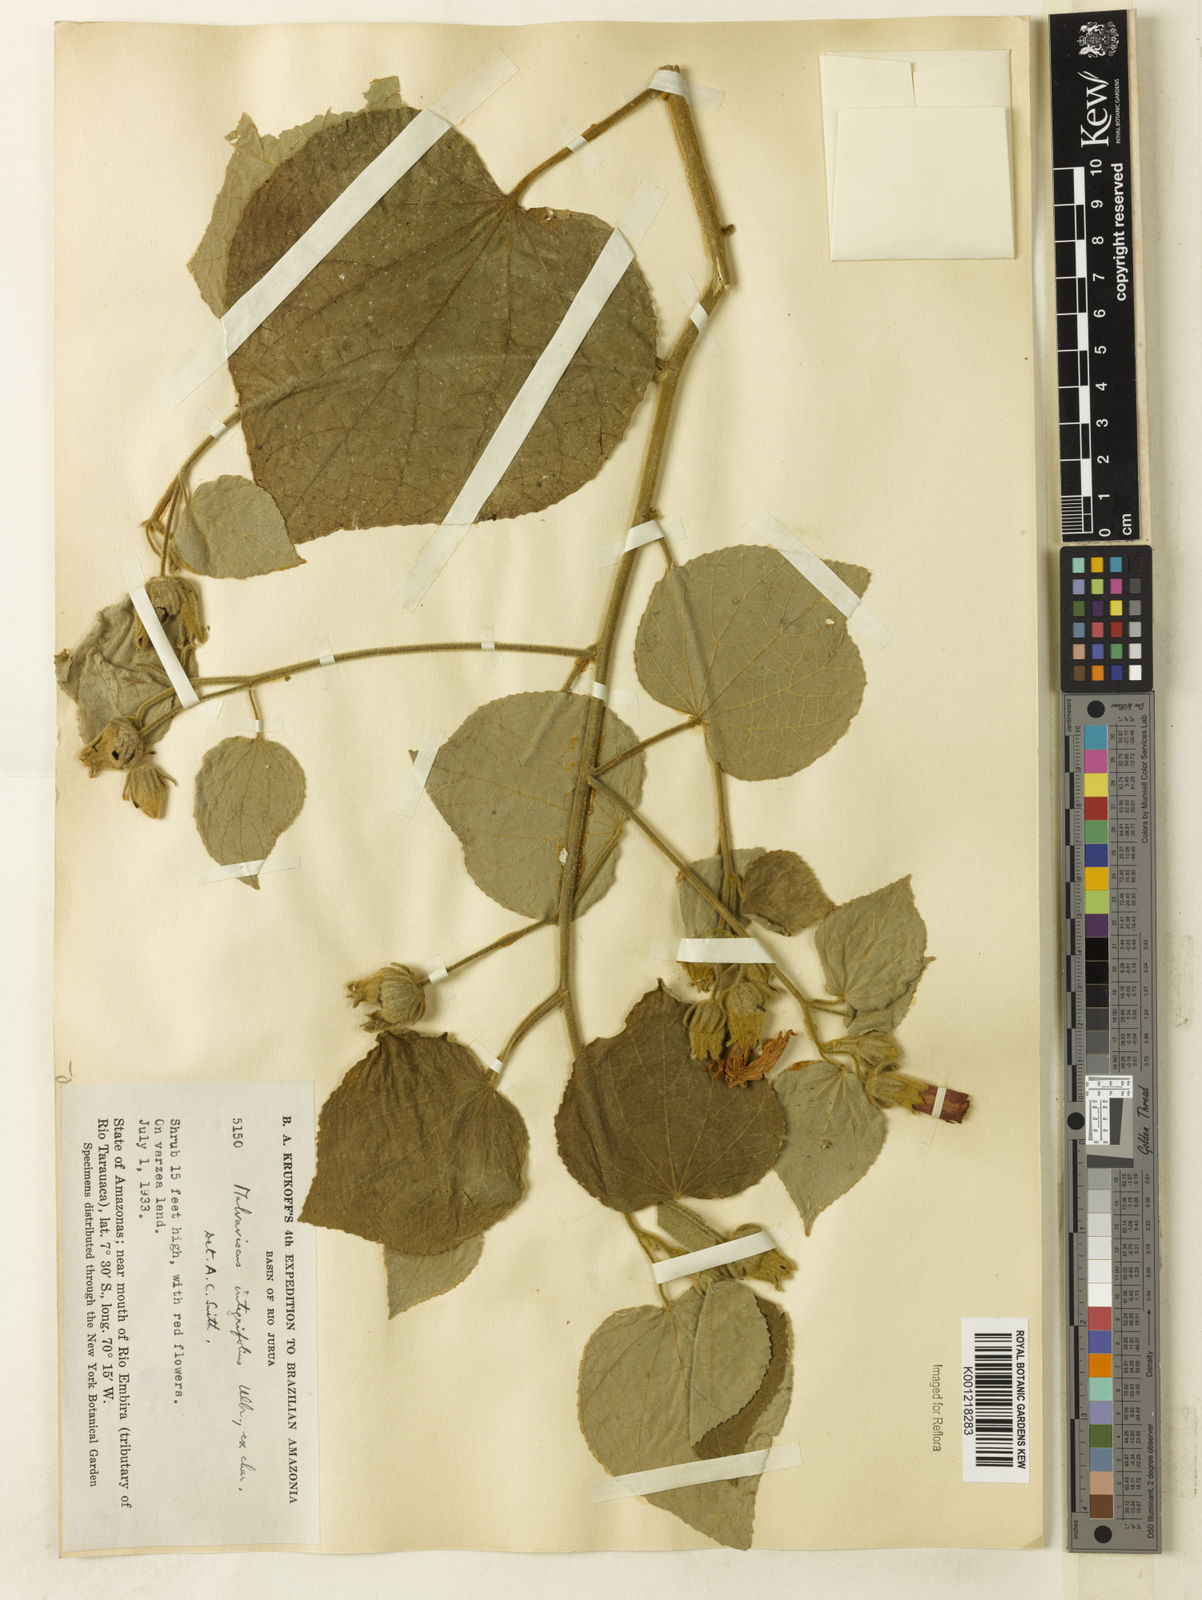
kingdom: Plantae
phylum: Tracheophyta
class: Magnoliopsida
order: Malvales
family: Malvaceae
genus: Malvaviscus
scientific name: Malvaviscus penduliflorus
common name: Mazapan
